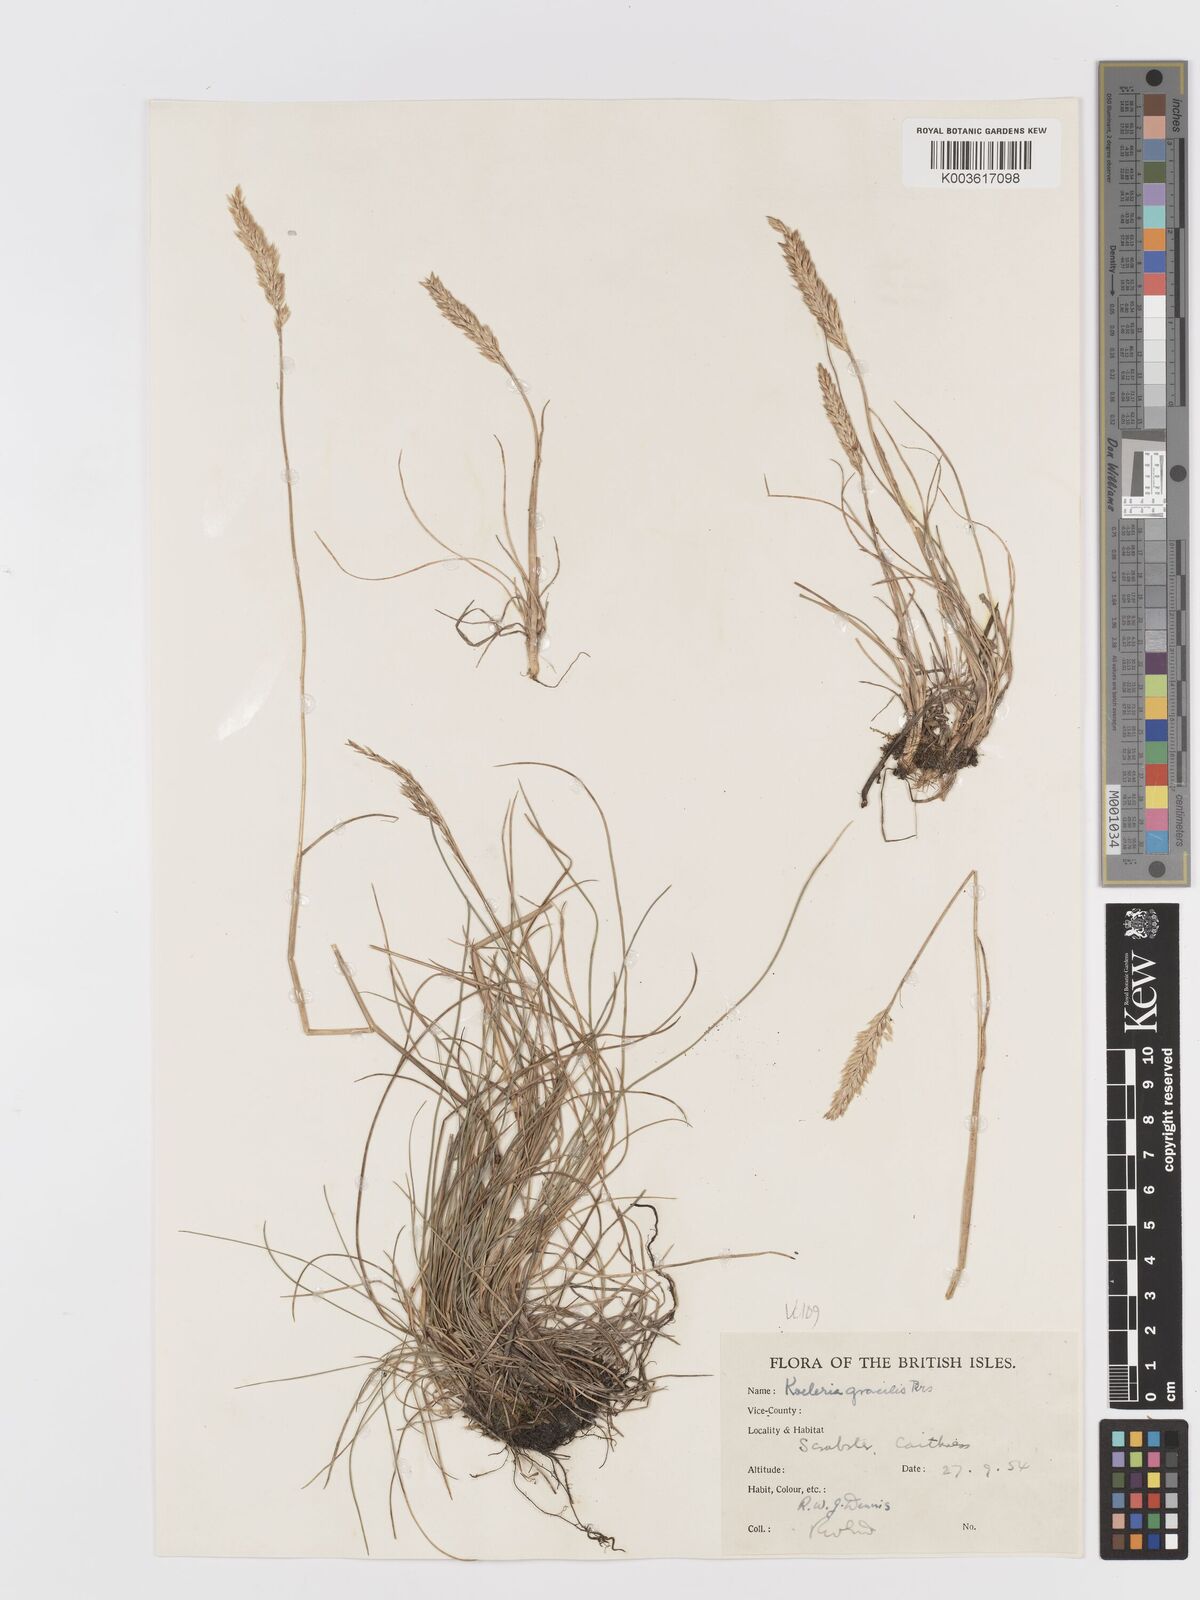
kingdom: Plantae
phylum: Tracheophyta
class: Liliopsida
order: Poales
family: Poaceae
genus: Koeleria
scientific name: Koeleria macrantha
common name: Crested hair-grass
